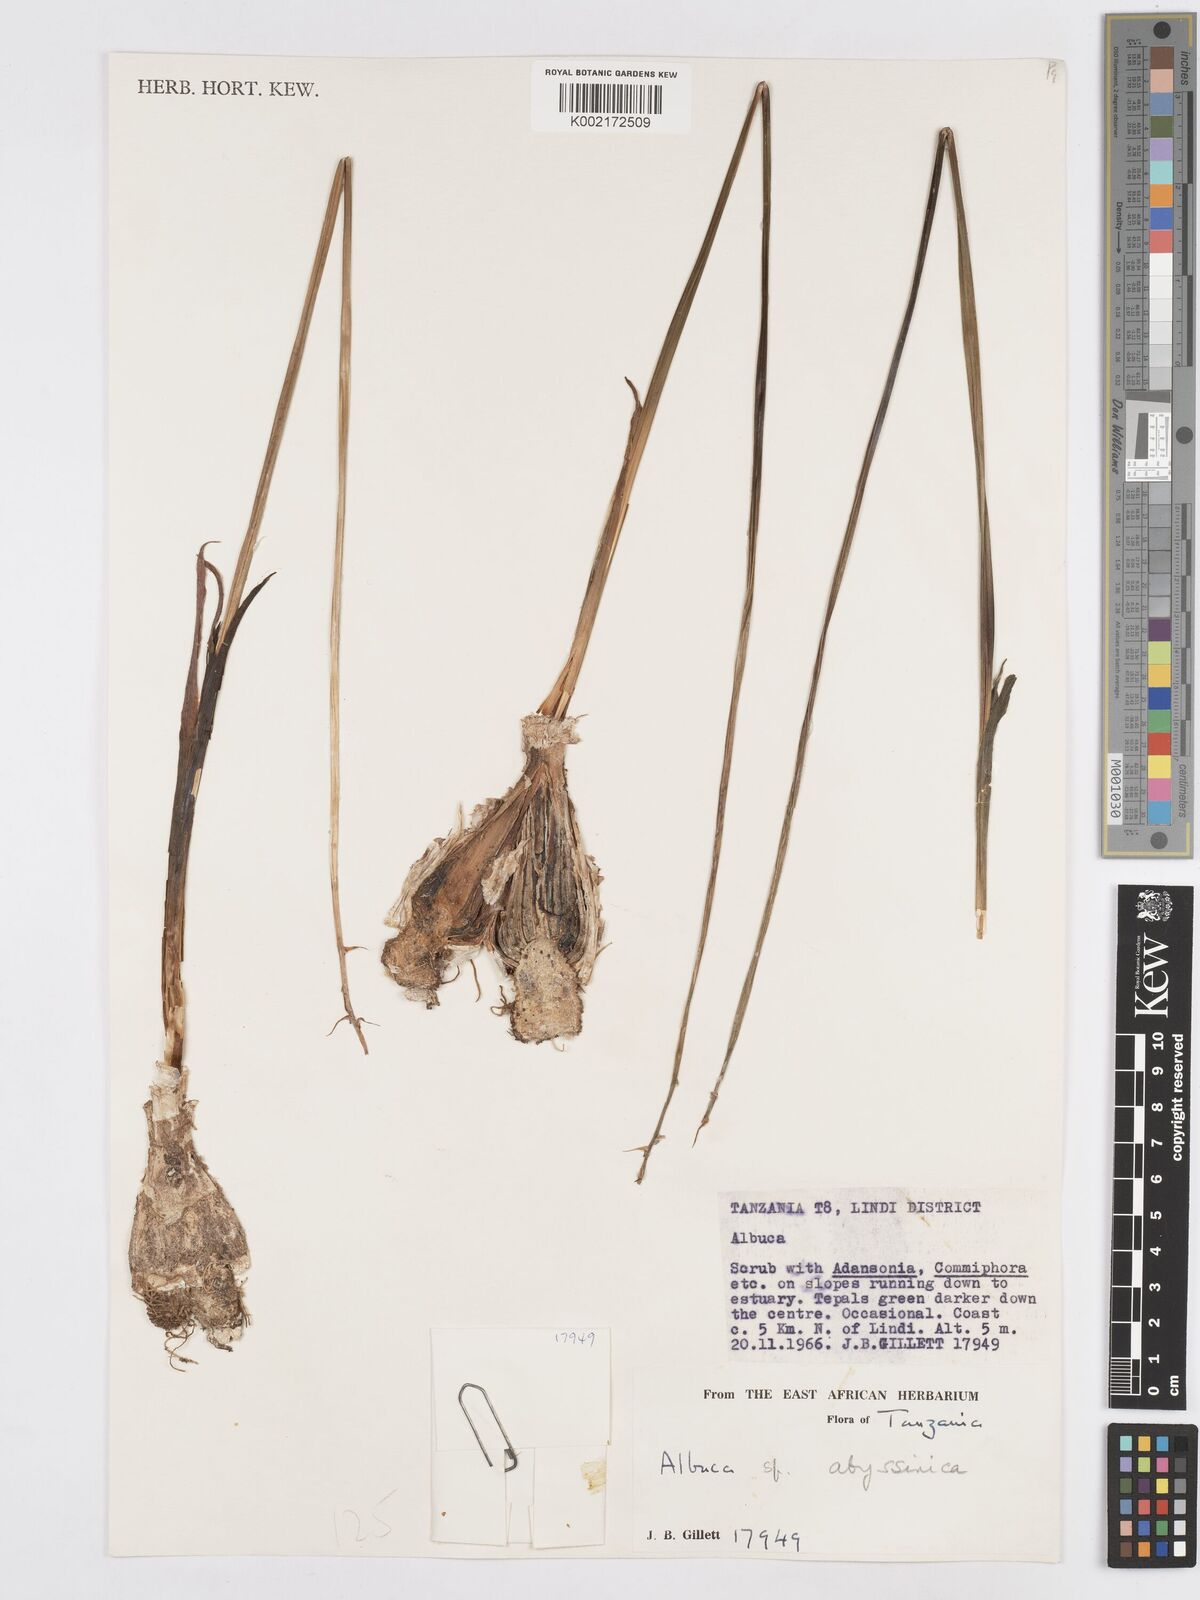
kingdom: Plantae
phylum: Tracheophyta
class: Liliopsida
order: Asparagales
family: Asparagaceae
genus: Albuca
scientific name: Albuca abyssinica
